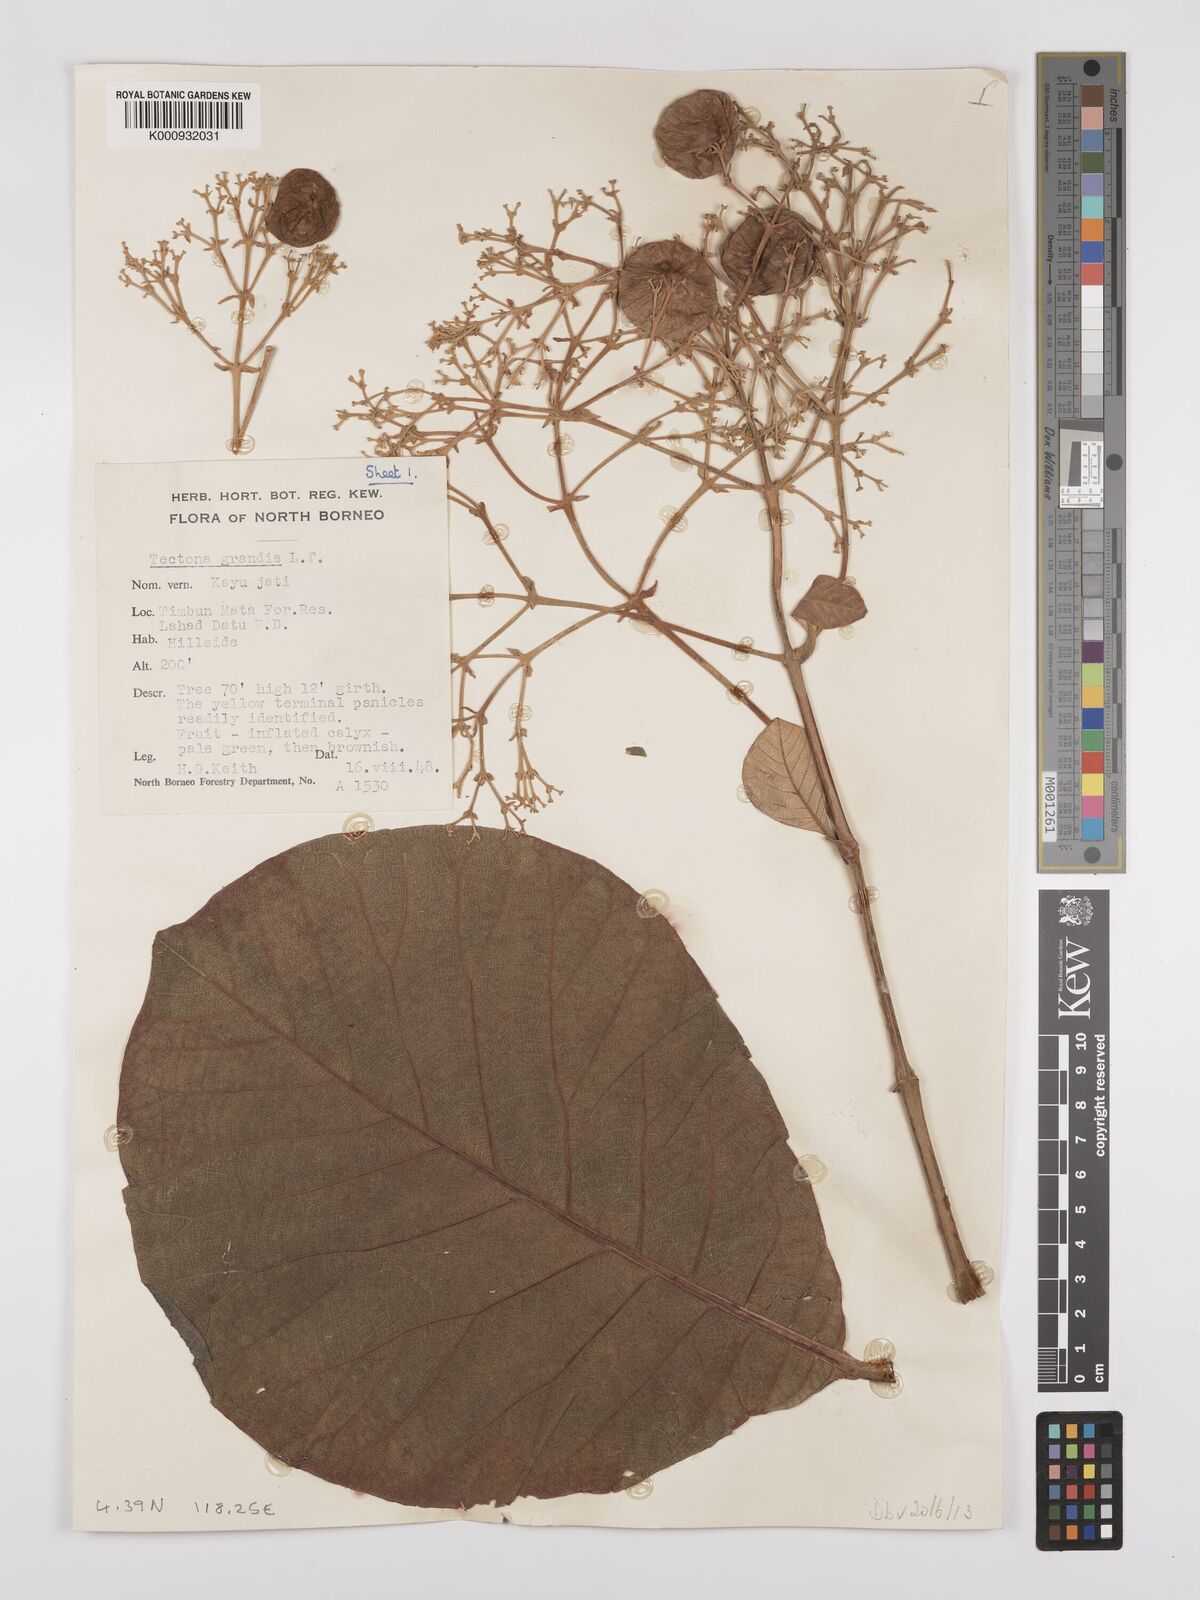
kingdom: Plantae
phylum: Tracheophyta
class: Magnoliopsida
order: Lamiales
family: Lamiaceae
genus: Tectona
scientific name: Tectona grandis
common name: Teak
